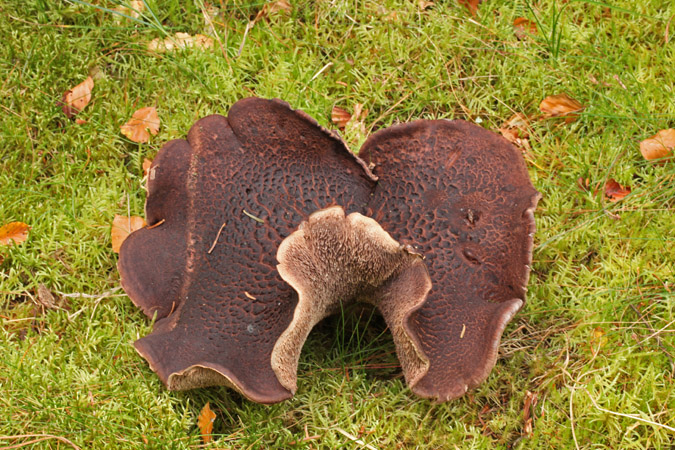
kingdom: Fungi
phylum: Basidiomycota
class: Agaricomycetes
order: Thelephorales
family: Bankeraceae
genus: Sarcodon
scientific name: Sarcodon squamosus
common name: småskællet kødpigsvamp
